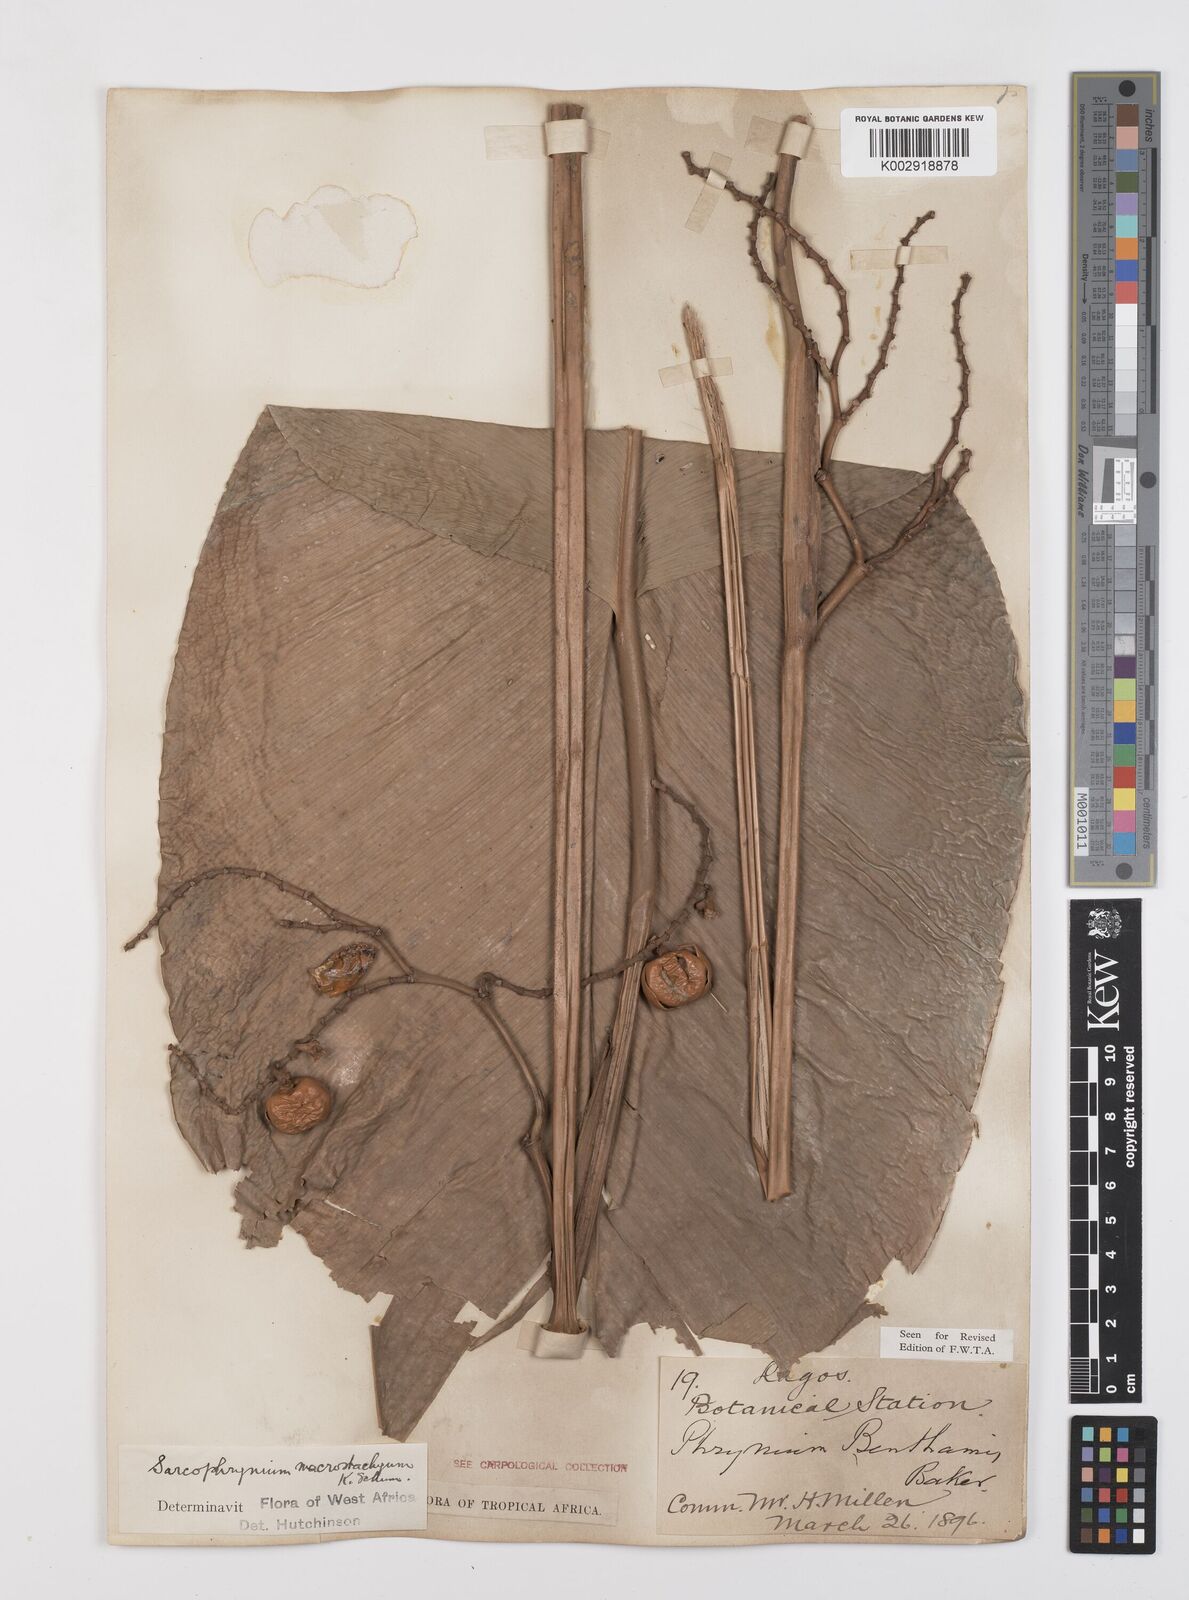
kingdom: Plantae
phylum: Tracheophyta
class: Liliopsida
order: Zingiberales
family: Marantaceae
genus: Megaphrynium
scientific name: Megaphrynium macrostachyum
